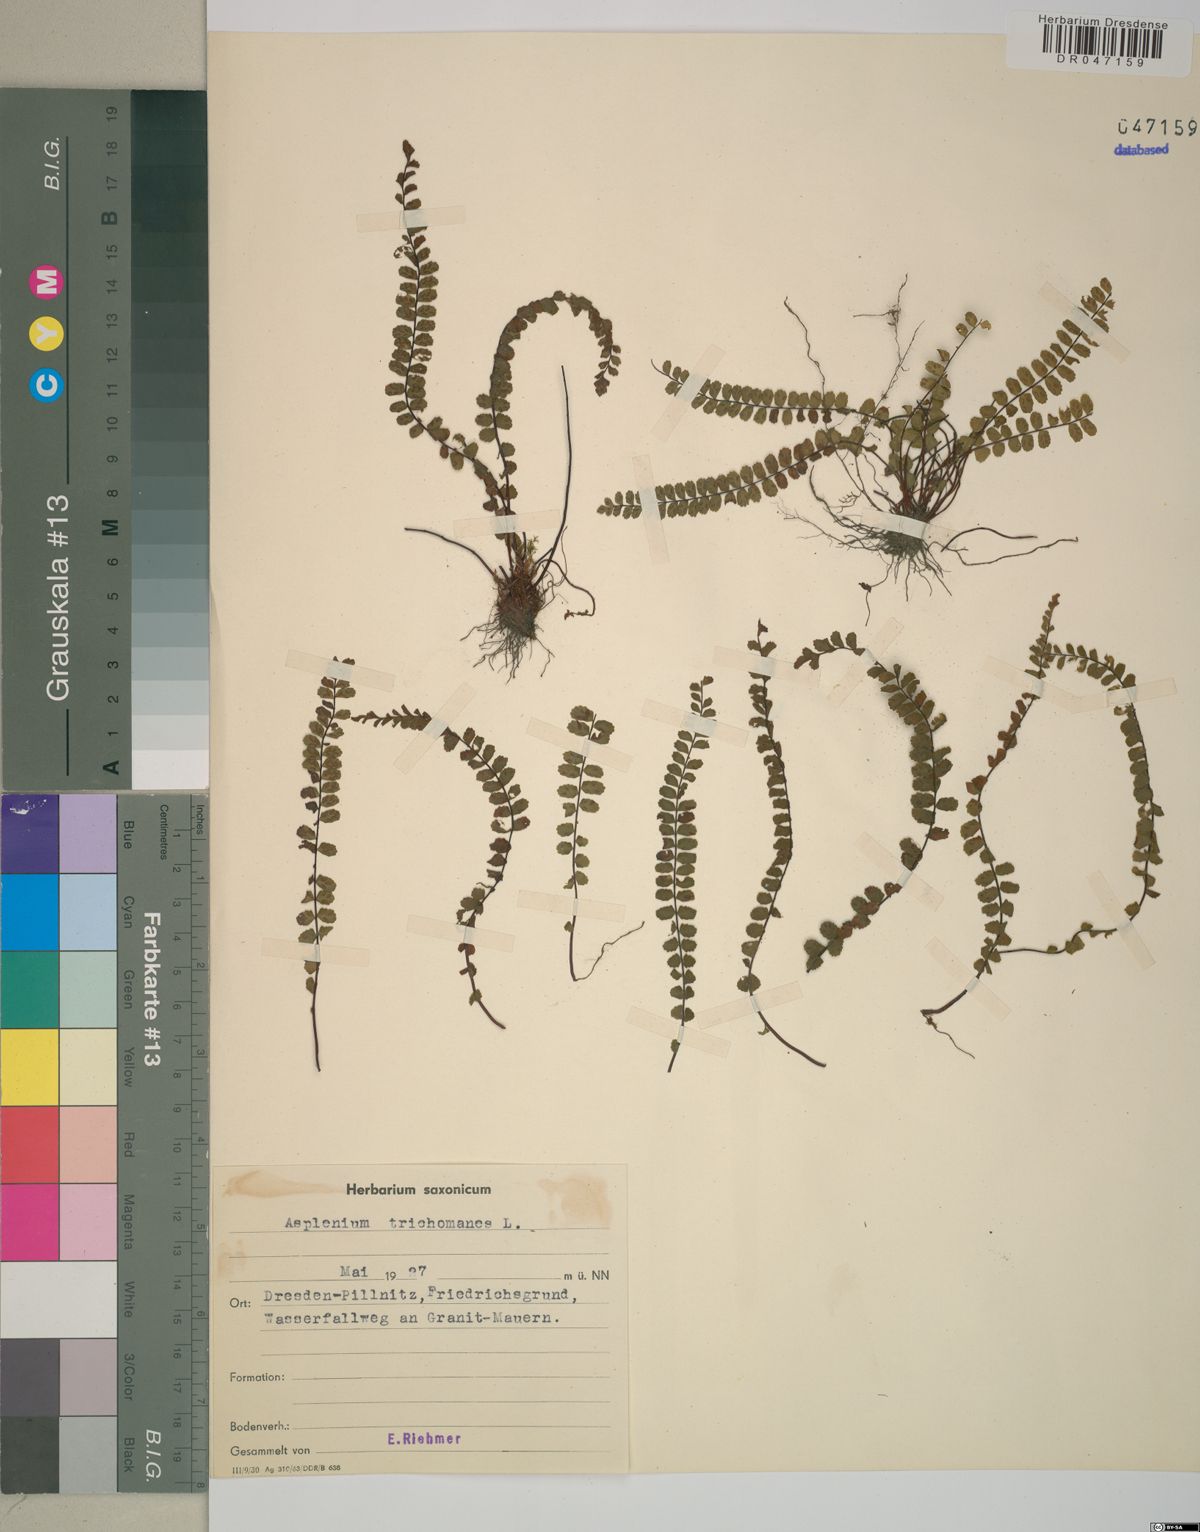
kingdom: Plantae
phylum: Tracheophyta
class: Polypodiopsida
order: Polypodiales
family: Aspleniaceae
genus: Asplenium
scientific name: Asplenium trichomanes
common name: Maidenhair spleenwort
